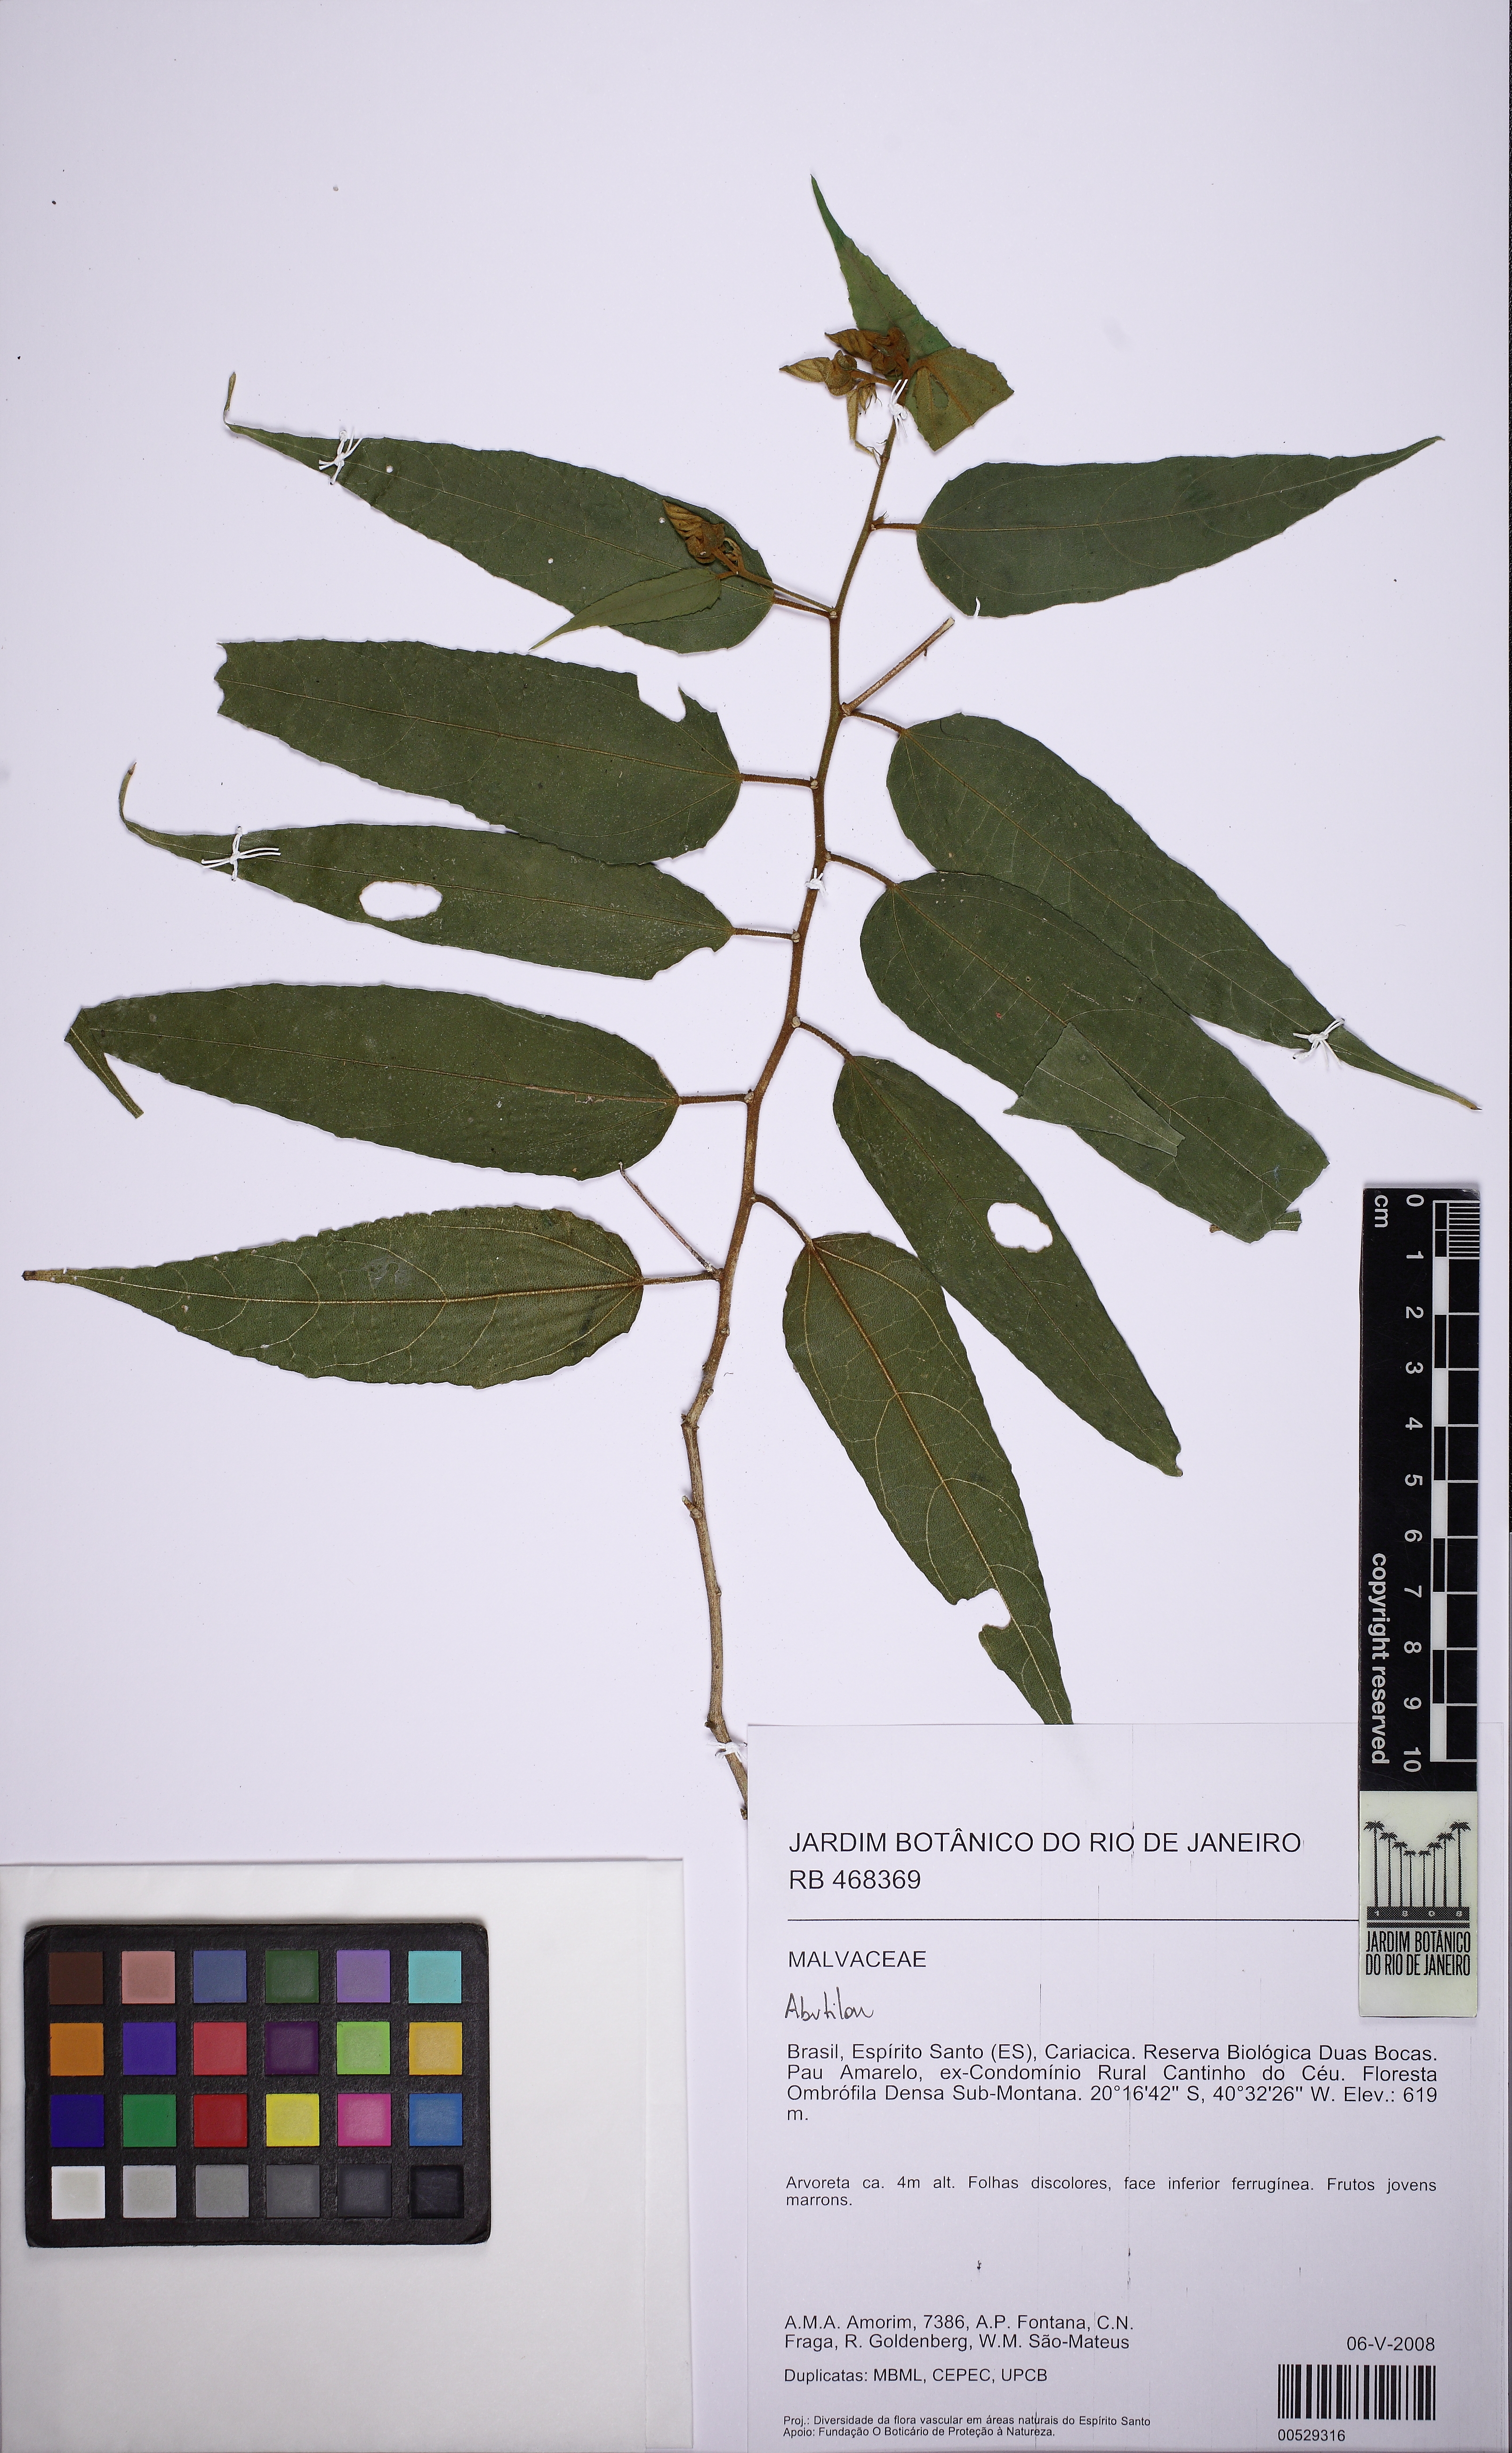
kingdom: Plantae
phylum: Tracheophyta
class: Magnoliopsida
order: Malvales
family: Malvaceae
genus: Abutilon
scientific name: Abutilon
